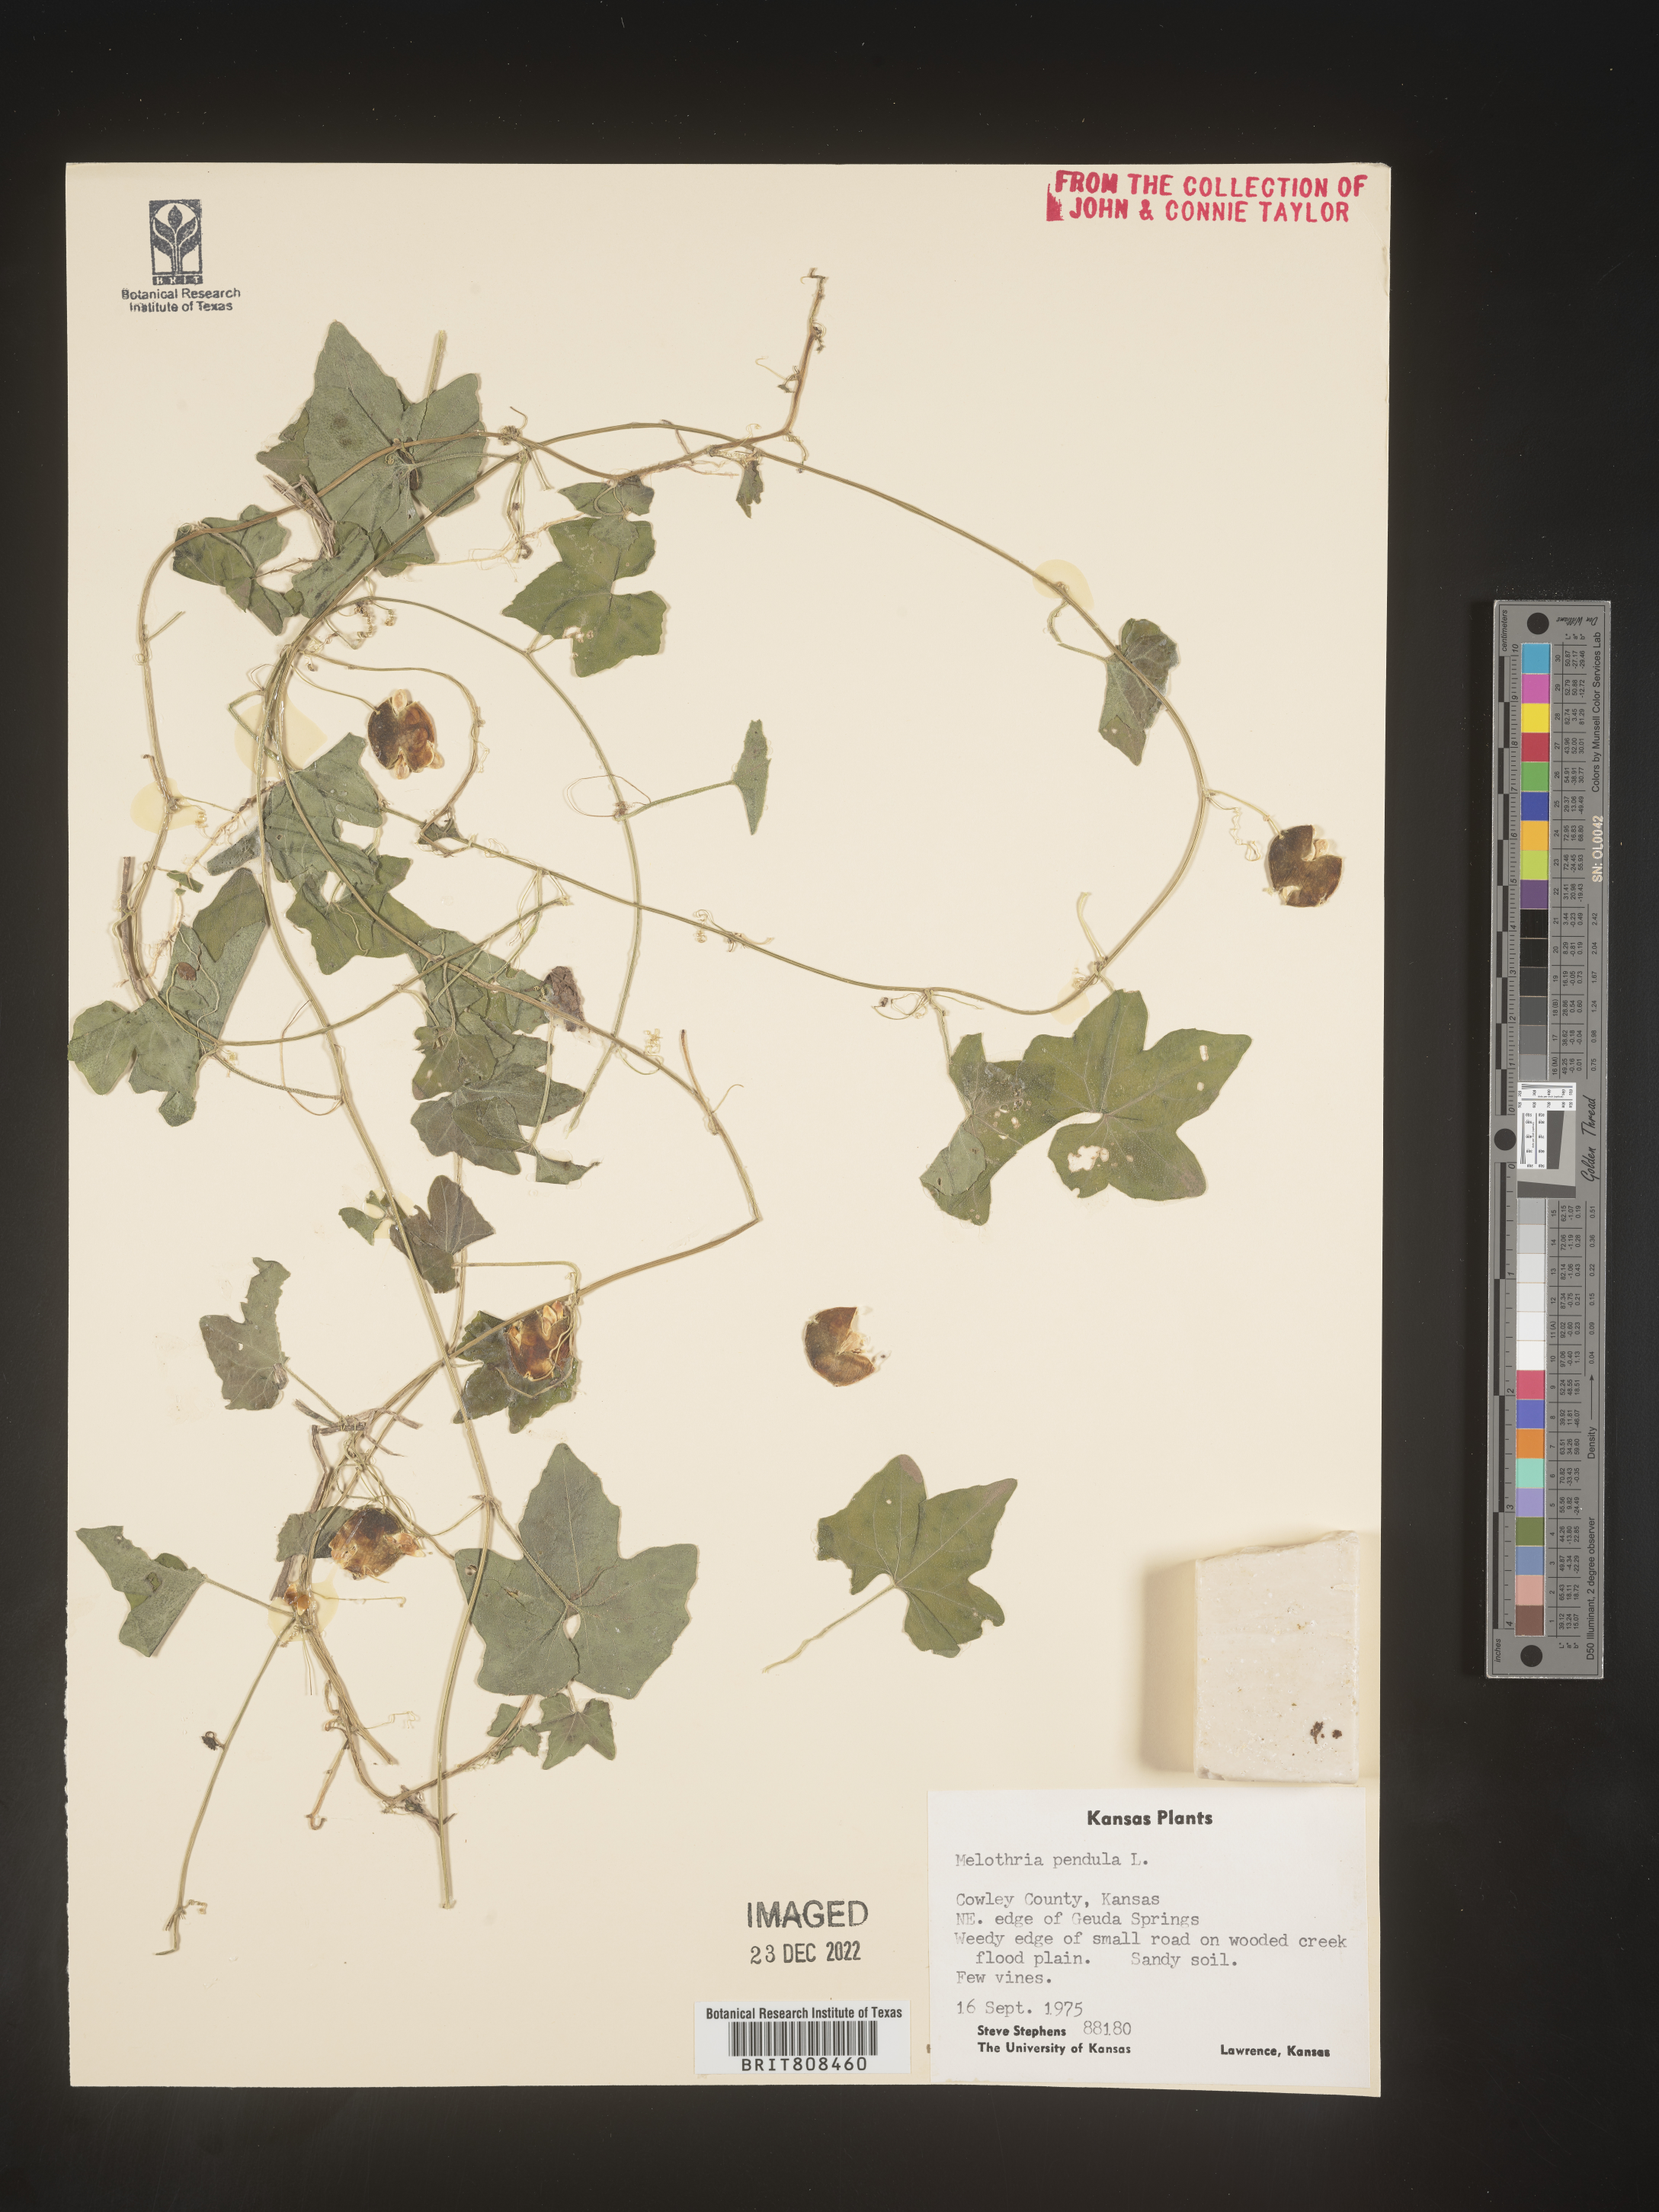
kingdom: Plantae
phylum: Tracheophyta
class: Magnoliopsida
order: Cucurbitales
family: Cucurbitaceae
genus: Melothria
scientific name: Melothria pendula
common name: Creeping-cucumber
